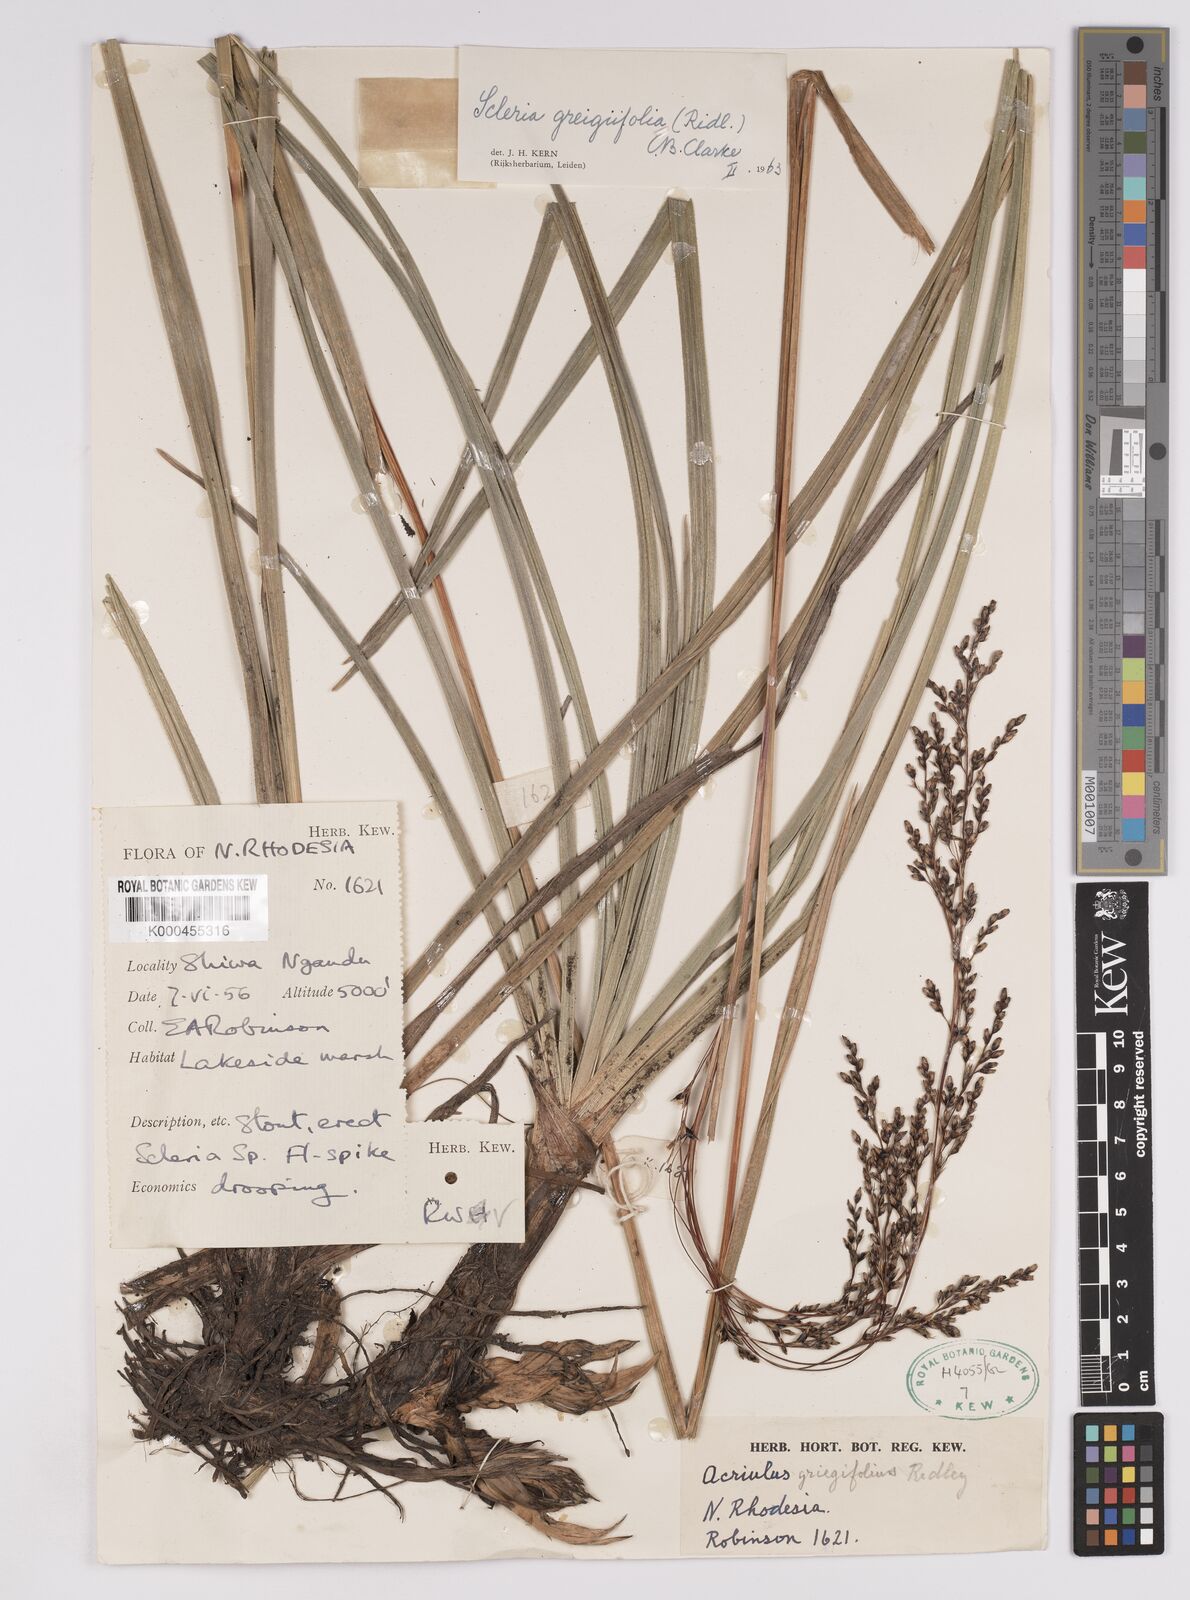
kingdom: Plantae
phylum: Tracheophyta
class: Liliopsida
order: Poales
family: Cyperaceae
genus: Scleria
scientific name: Scleria greigiifolia
